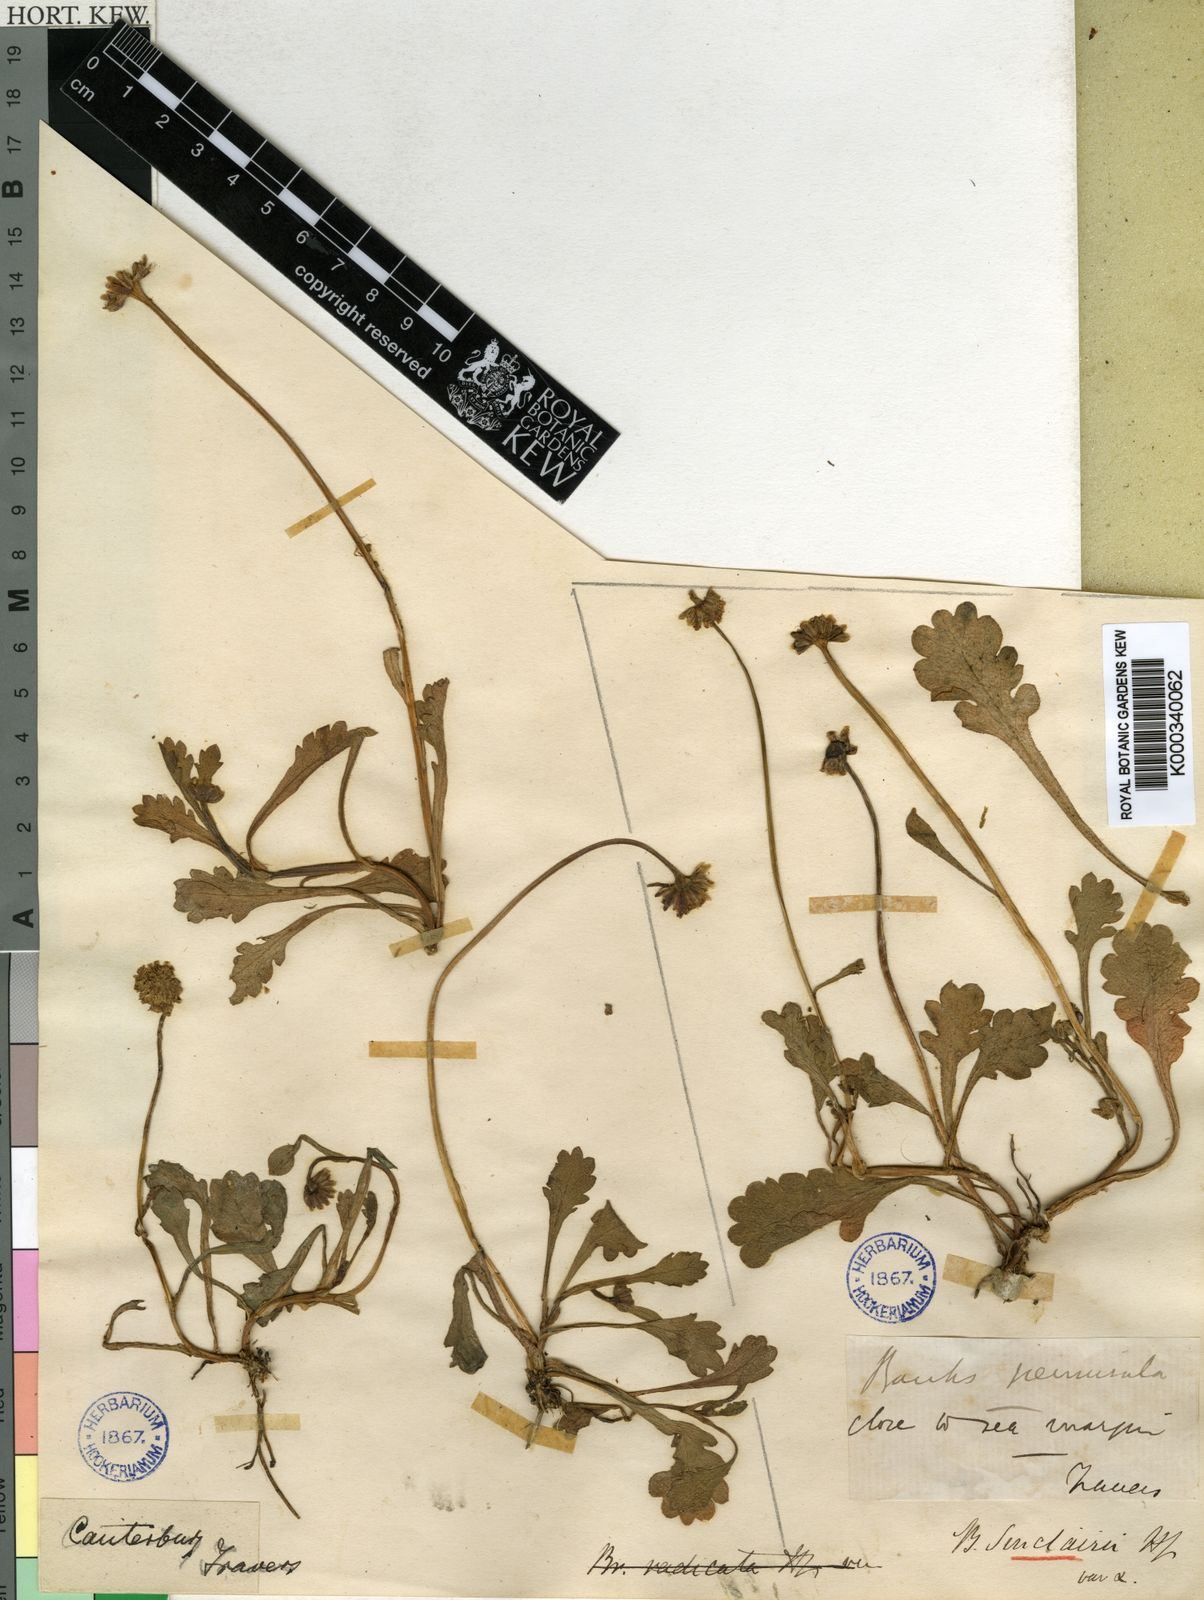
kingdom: Plantae
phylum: Tracheophyta
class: Magnoliopsida
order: Asterales
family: Asteraceae
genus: Brachyscome
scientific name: Brachyscome sinclairii
